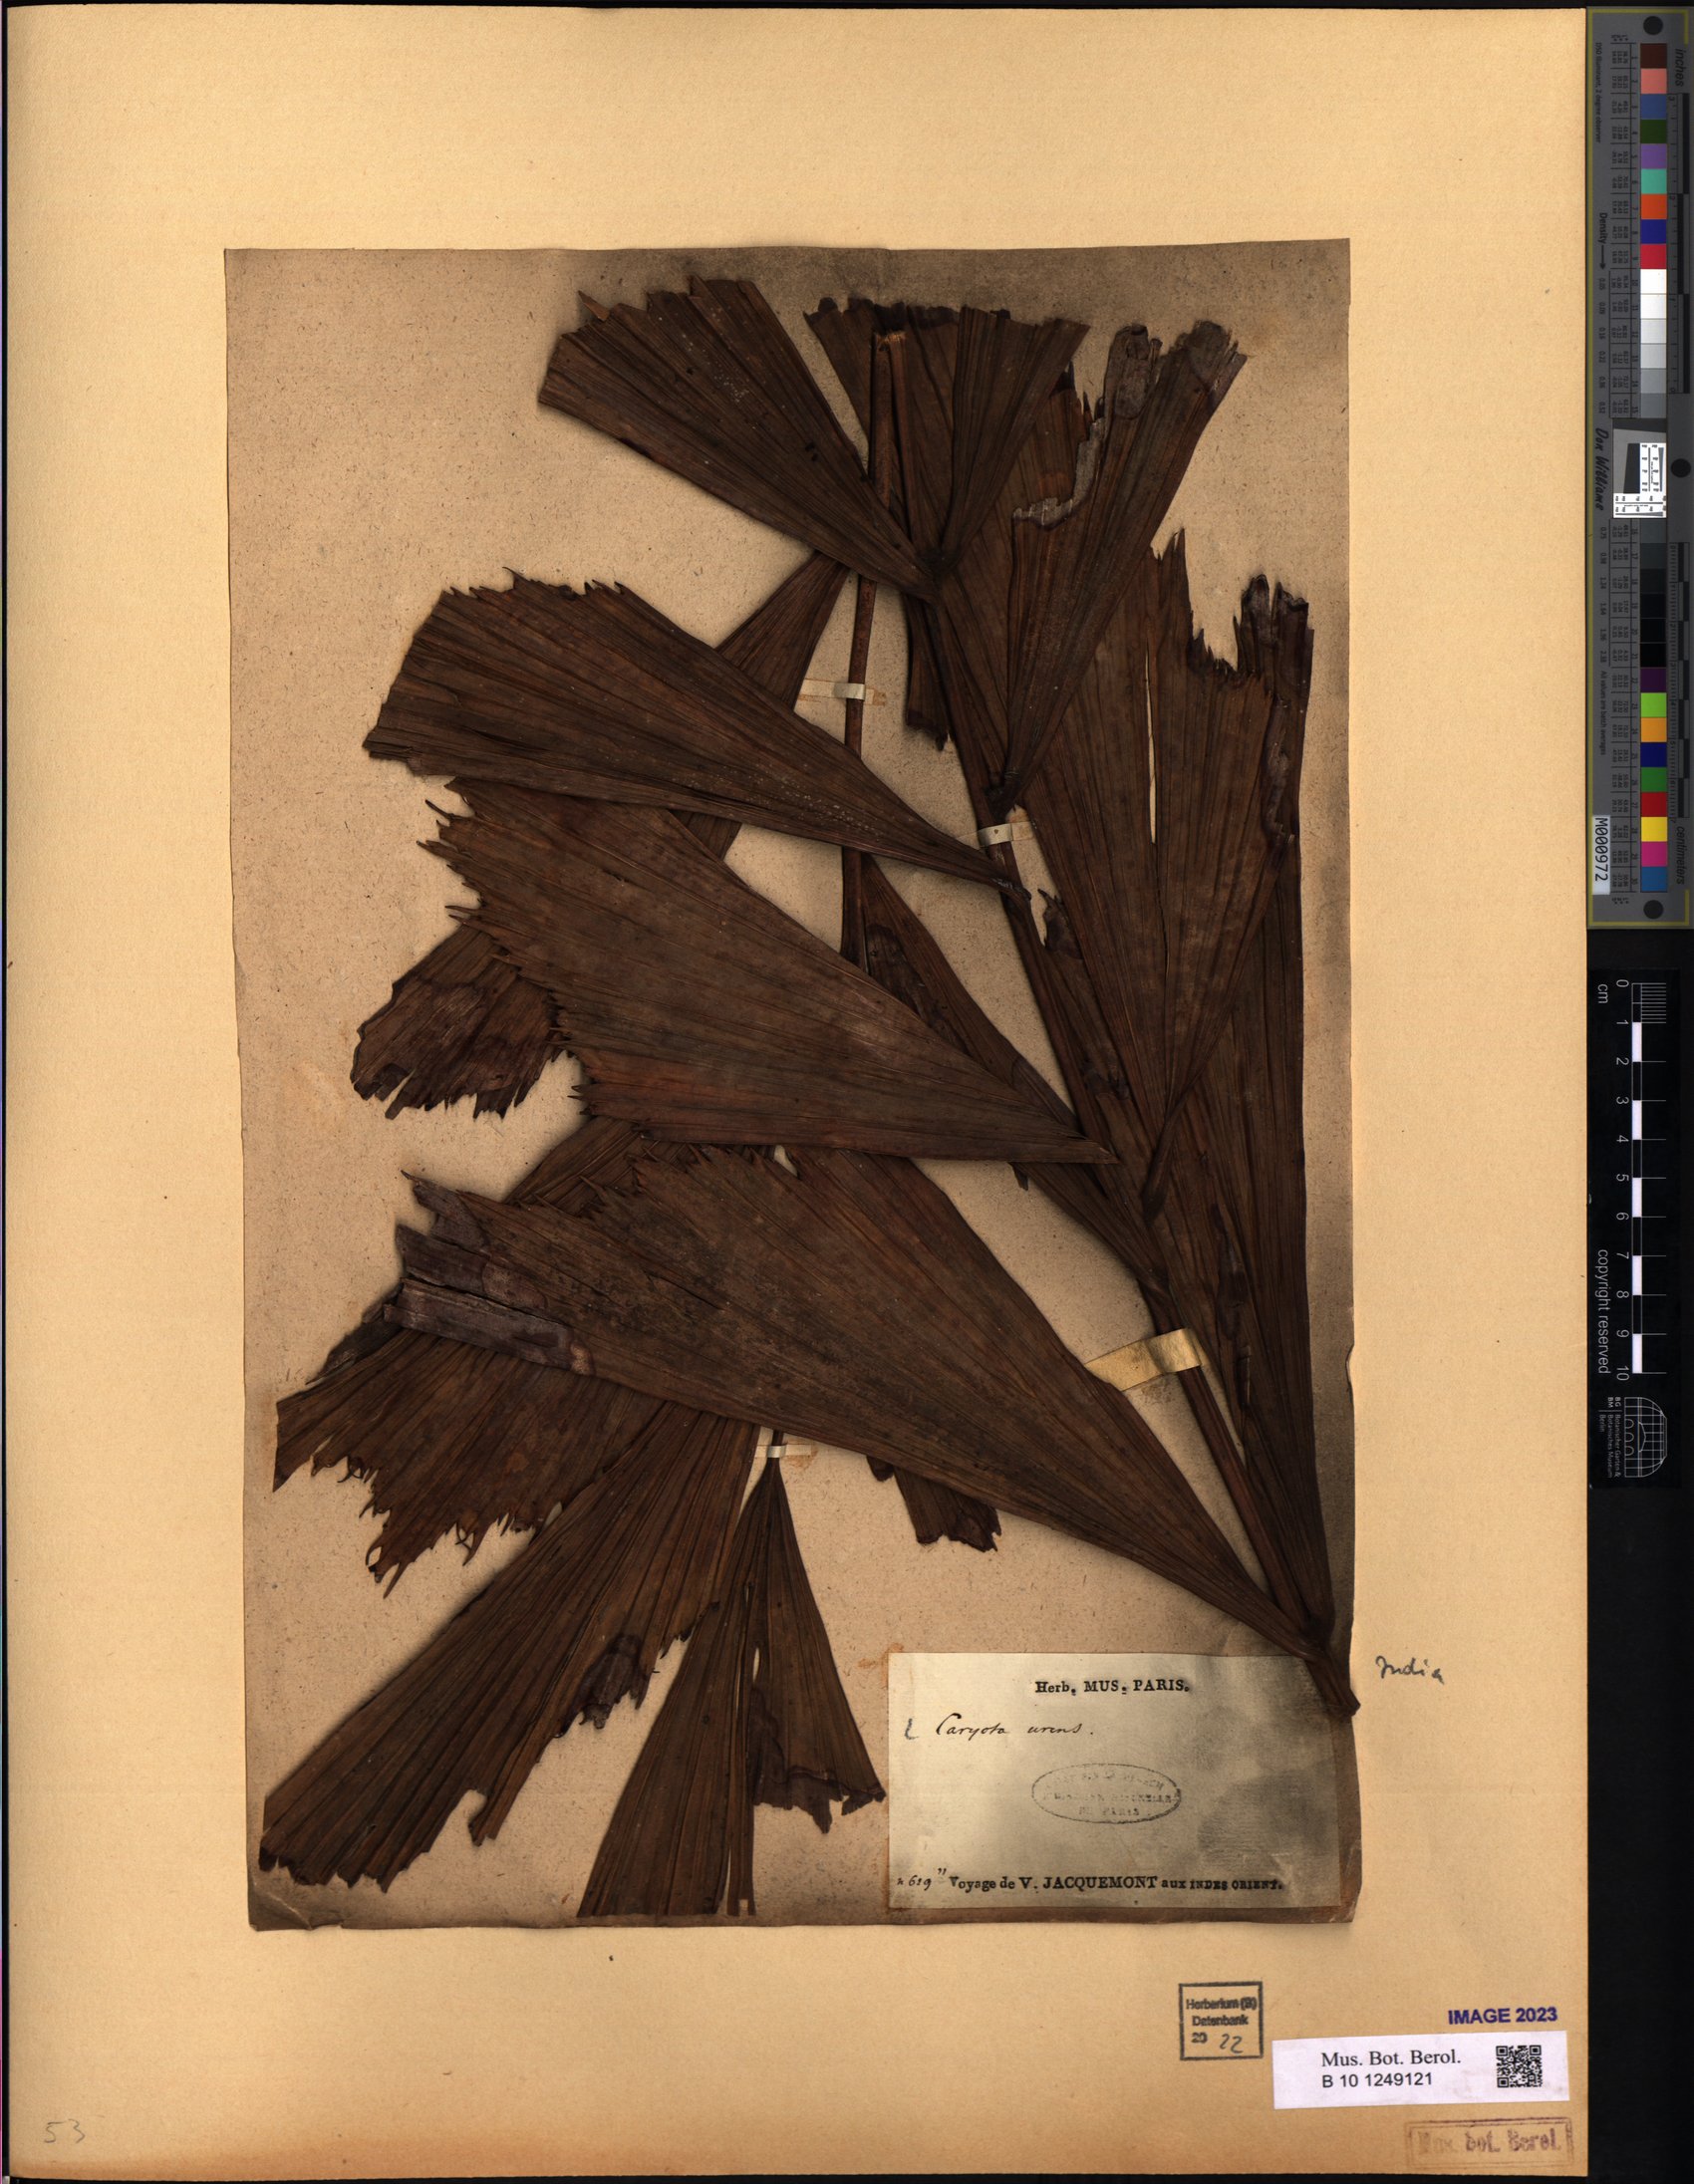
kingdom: Plantae
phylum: Tracheophyta
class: Liliopsida
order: Arecales
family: Arecaceae
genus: Caryota
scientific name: Caryota urens
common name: Jaggery palm
